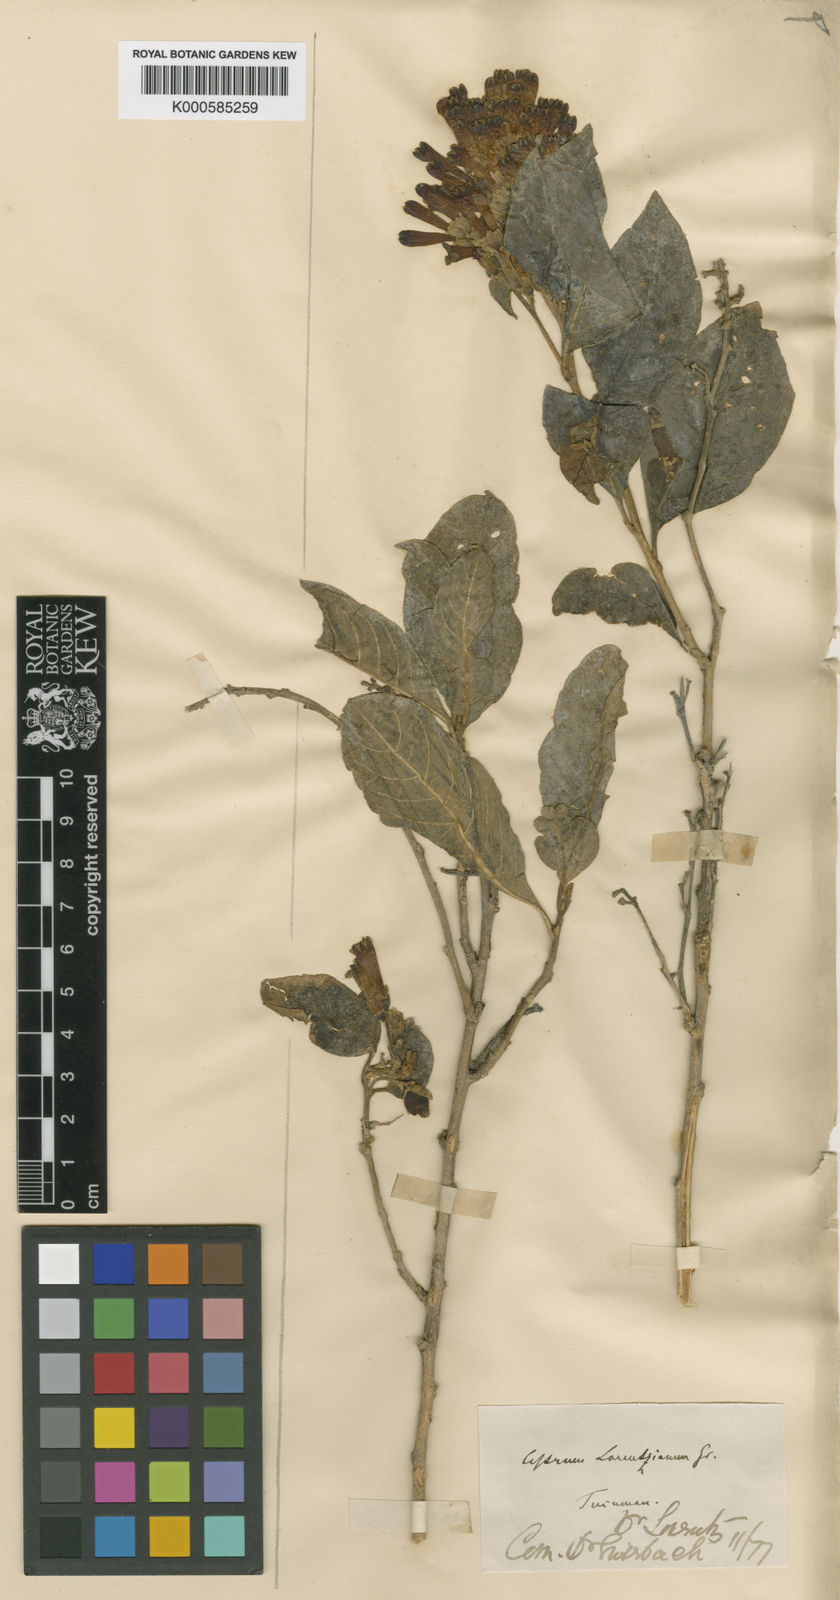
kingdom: Plantae
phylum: Tracheophyta
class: Magnoliopsida
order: Solanales
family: Solanaceae
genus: Cestrum
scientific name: Cestrum lorentzianum
